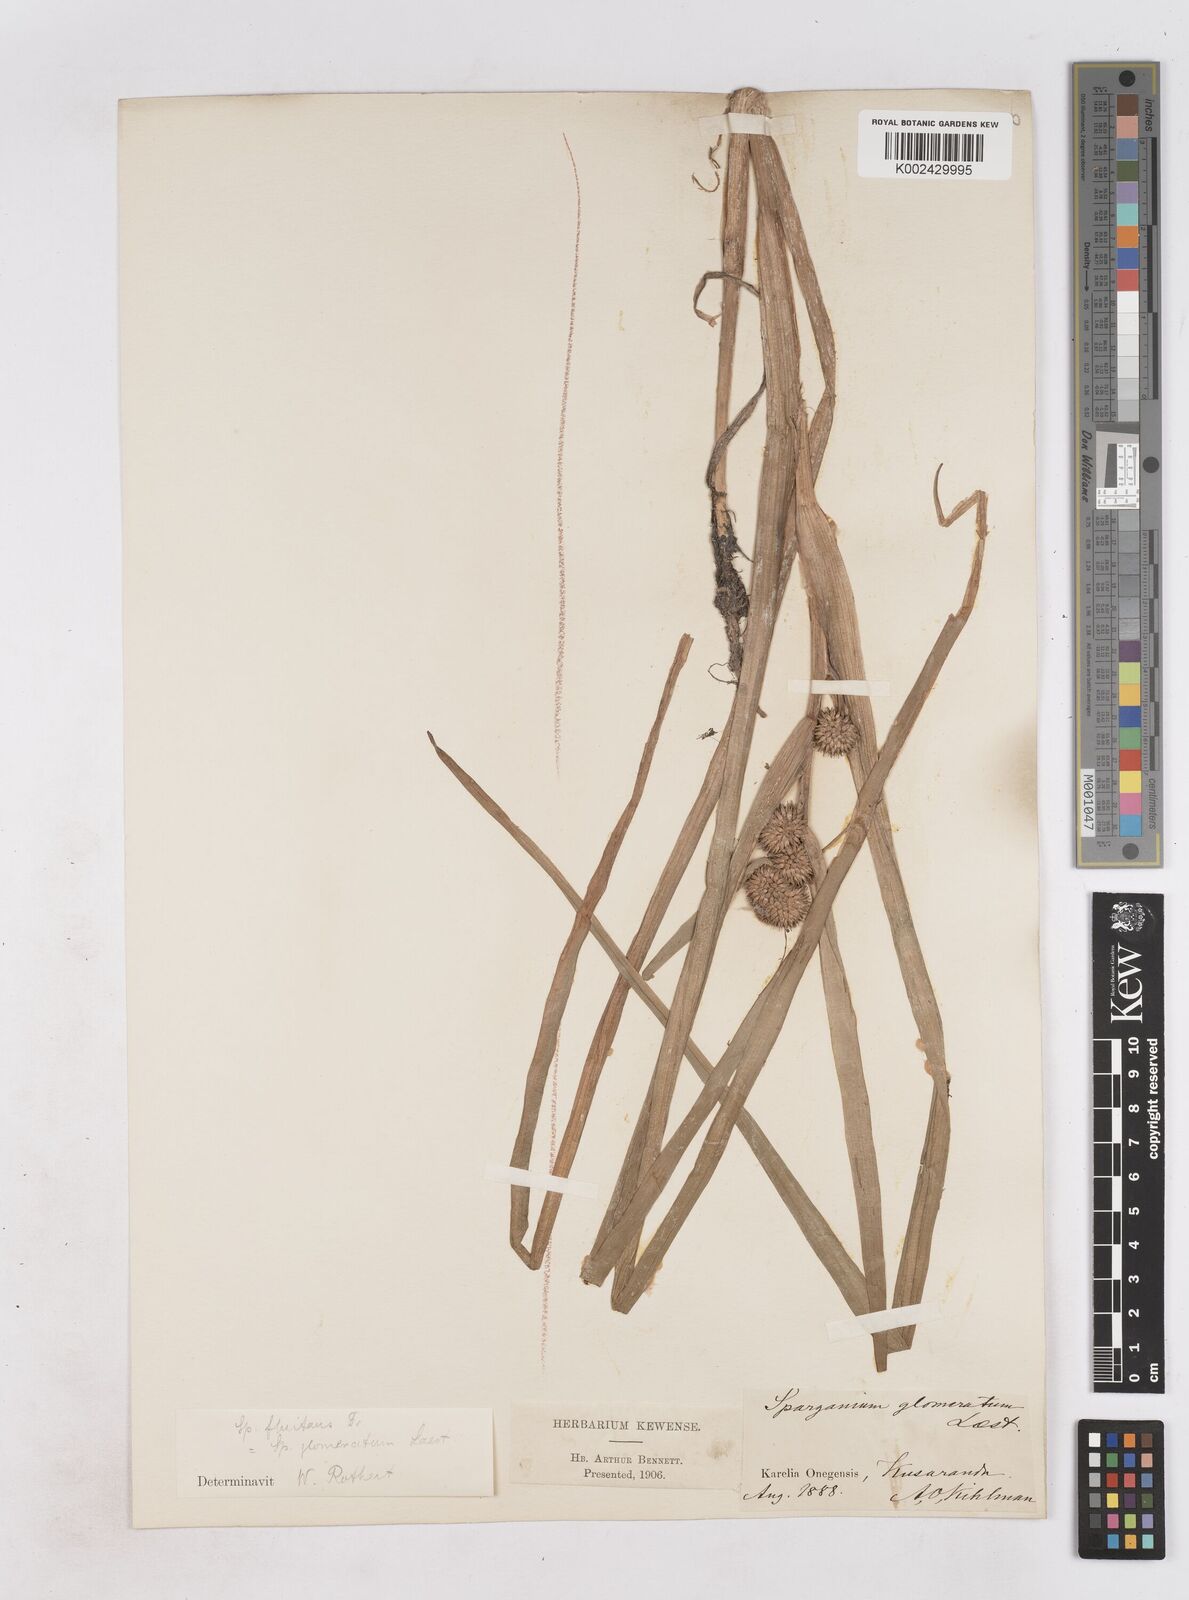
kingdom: Plantae
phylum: Tracheophyta
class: Liliopsida
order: Poales
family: Typhaceae
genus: Sparganium
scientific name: Sparganium angustifolium
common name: Floating bur-reed
